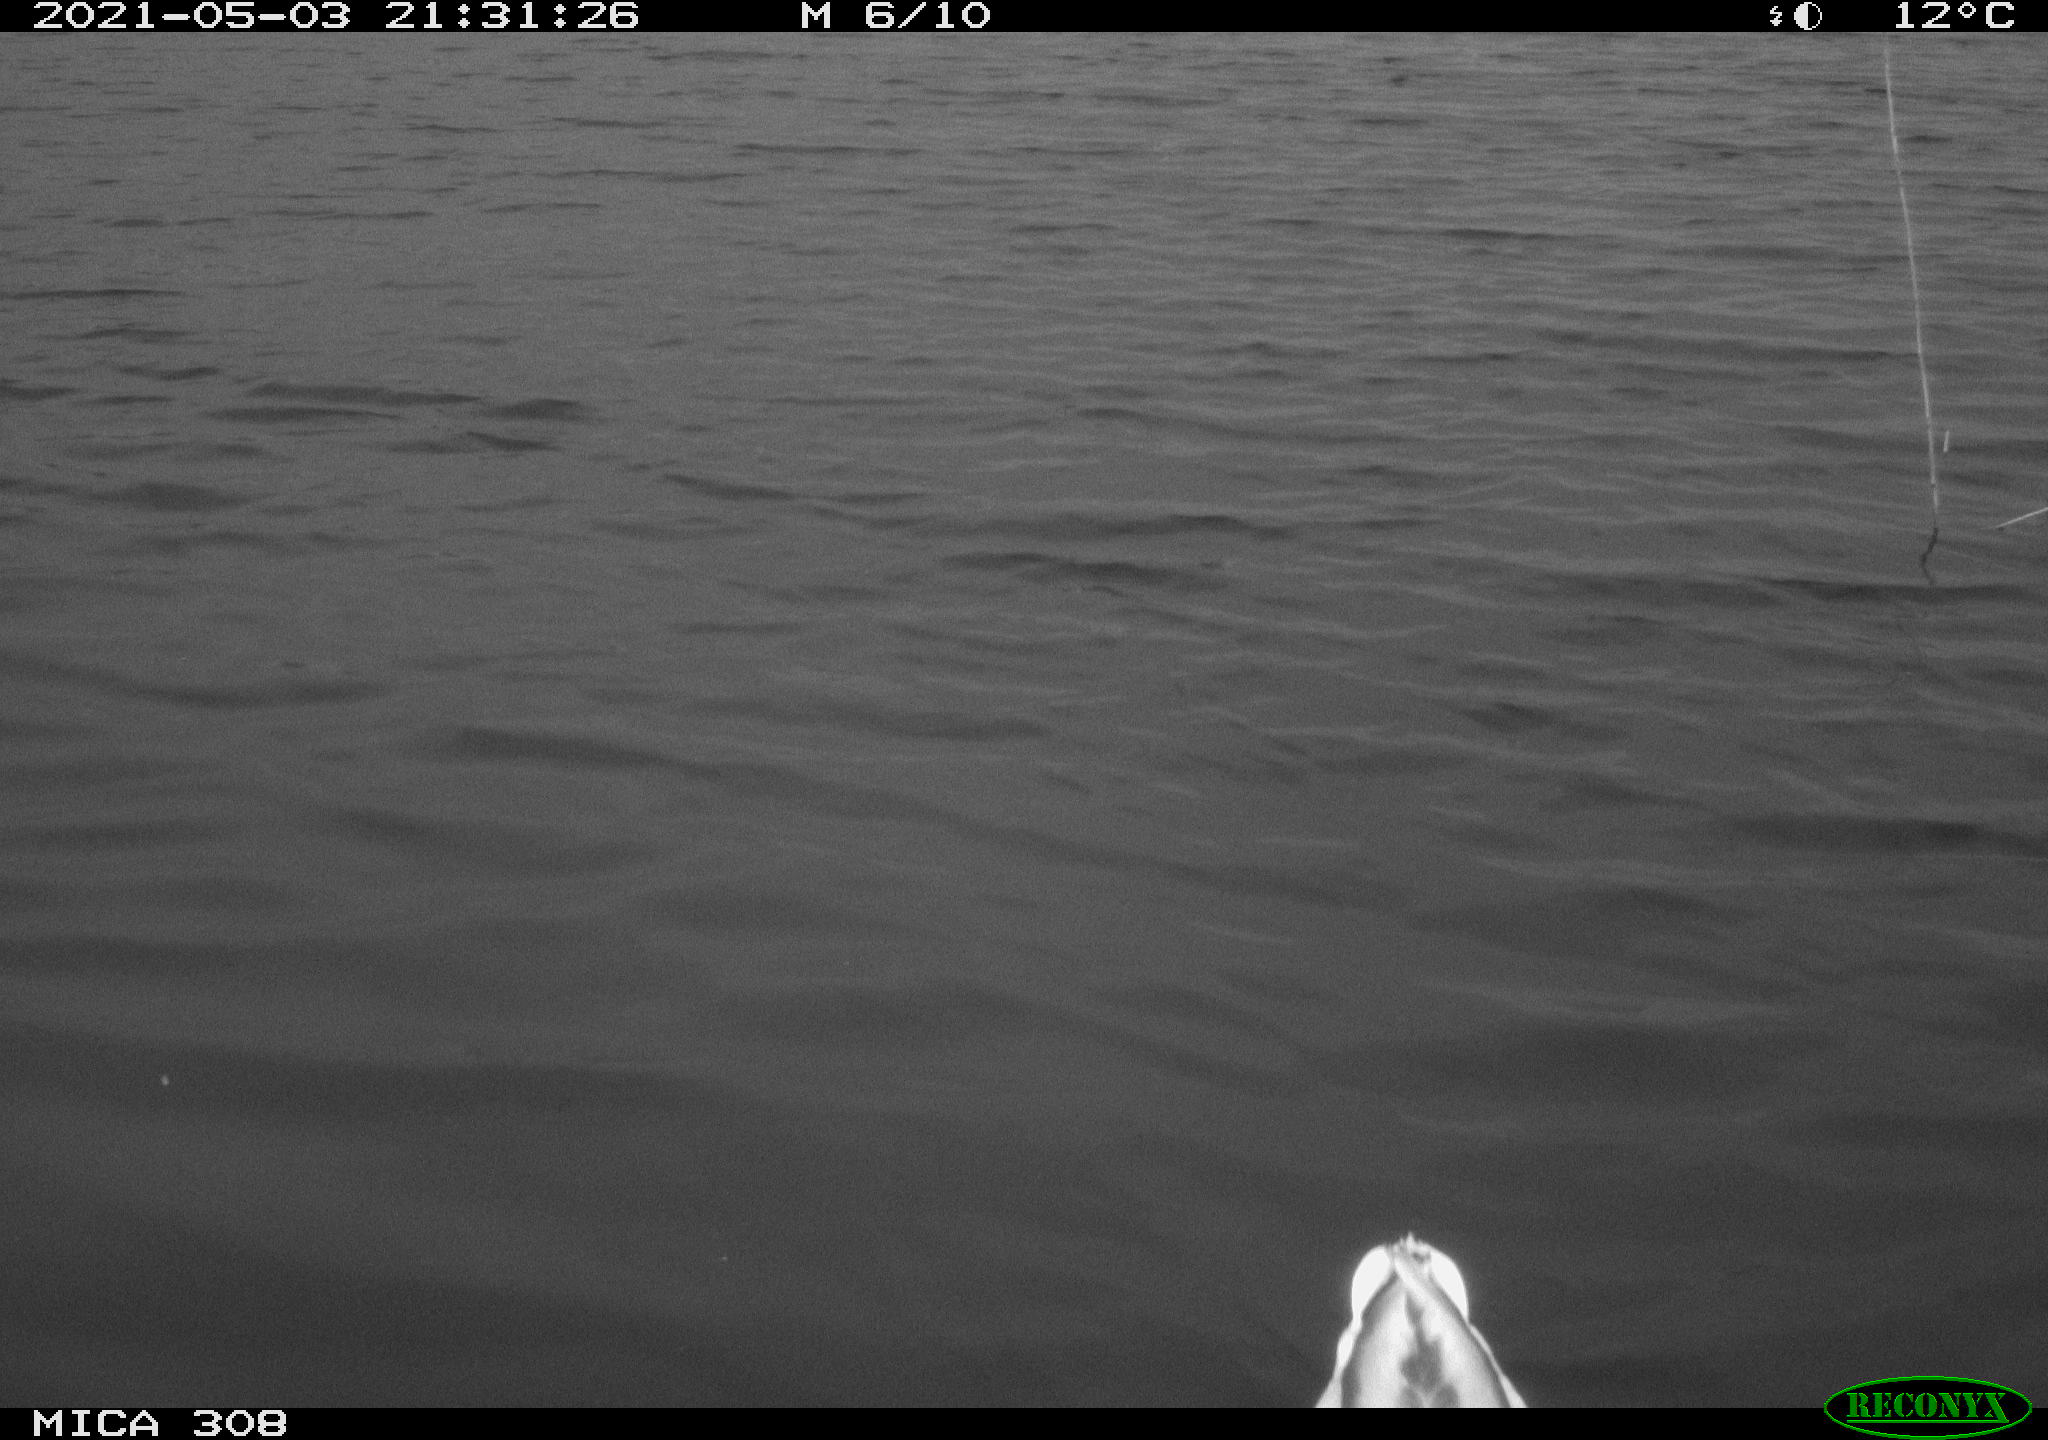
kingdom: Animalia
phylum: Chordata
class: Aves
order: Anseriformes
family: Anatidae
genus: Anas
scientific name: Anas platyrhynchos
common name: Mallard
